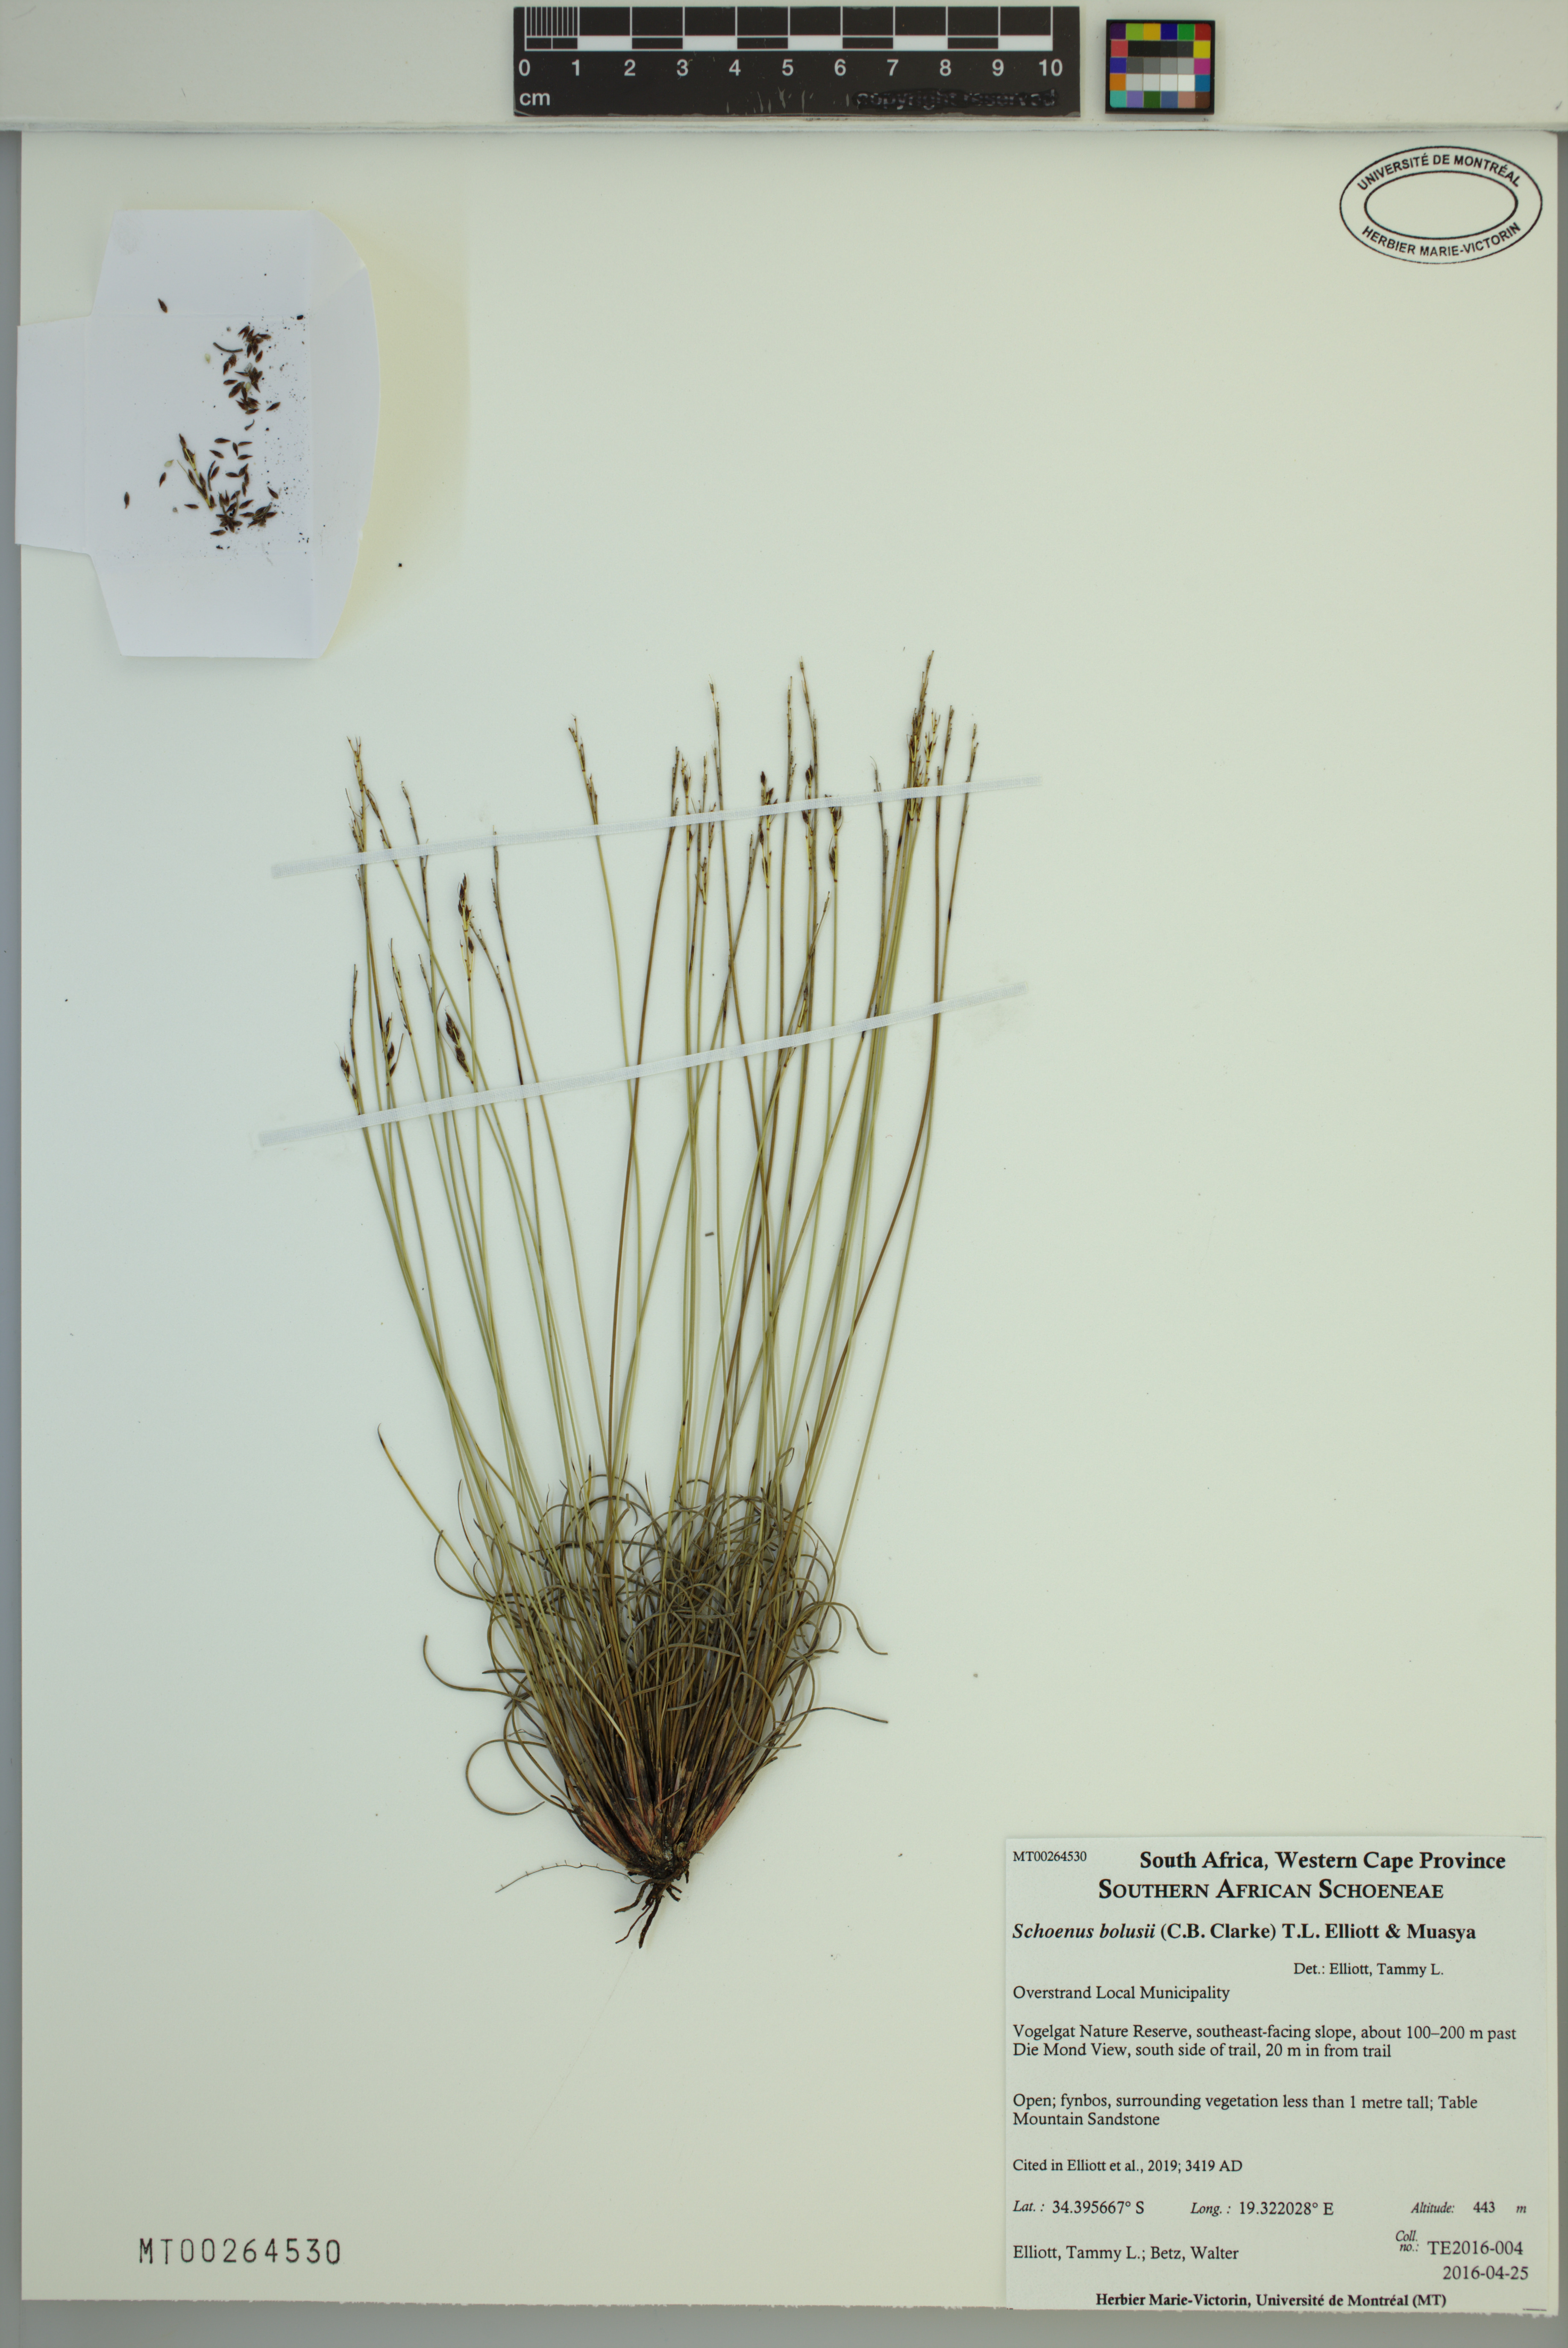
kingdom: Plantae
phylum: Tracheophyta
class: Liliopsida
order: Poales
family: Cyperaceae
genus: Schoenus
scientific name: Schoenus bolusii
